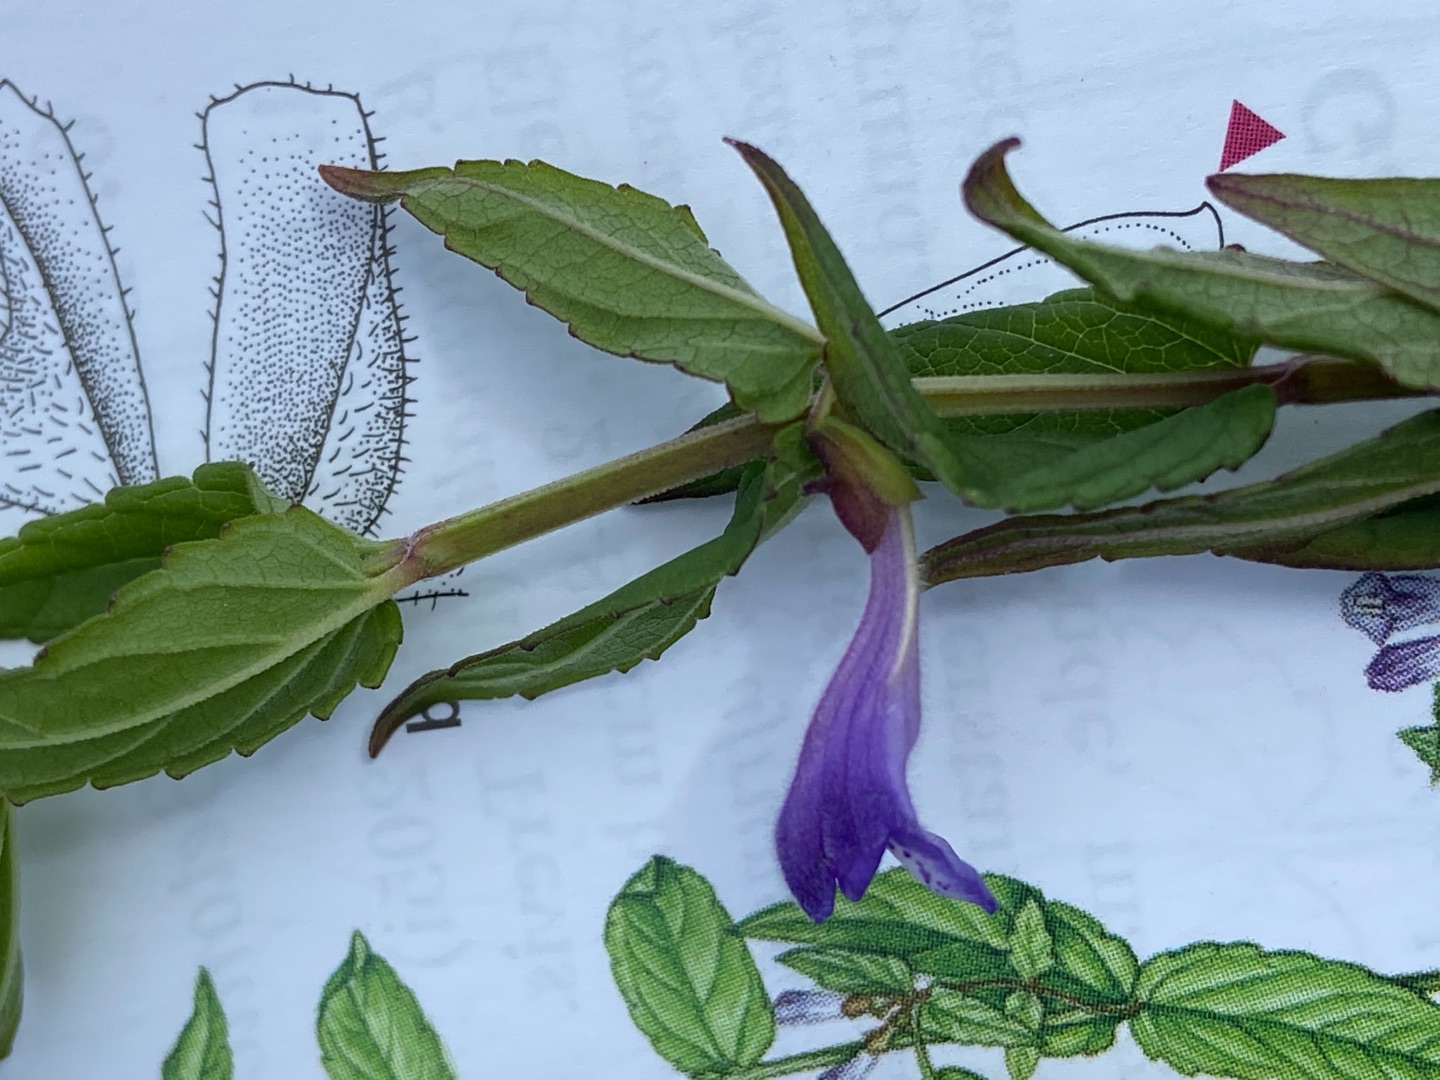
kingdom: Plantae
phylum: Tracheophyta
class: Magnoliopsida
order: Lamiales
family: Lamiaceae
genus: Scutellaria
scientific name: Scutellaria galericulata
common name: Almindelig skjolddrager
